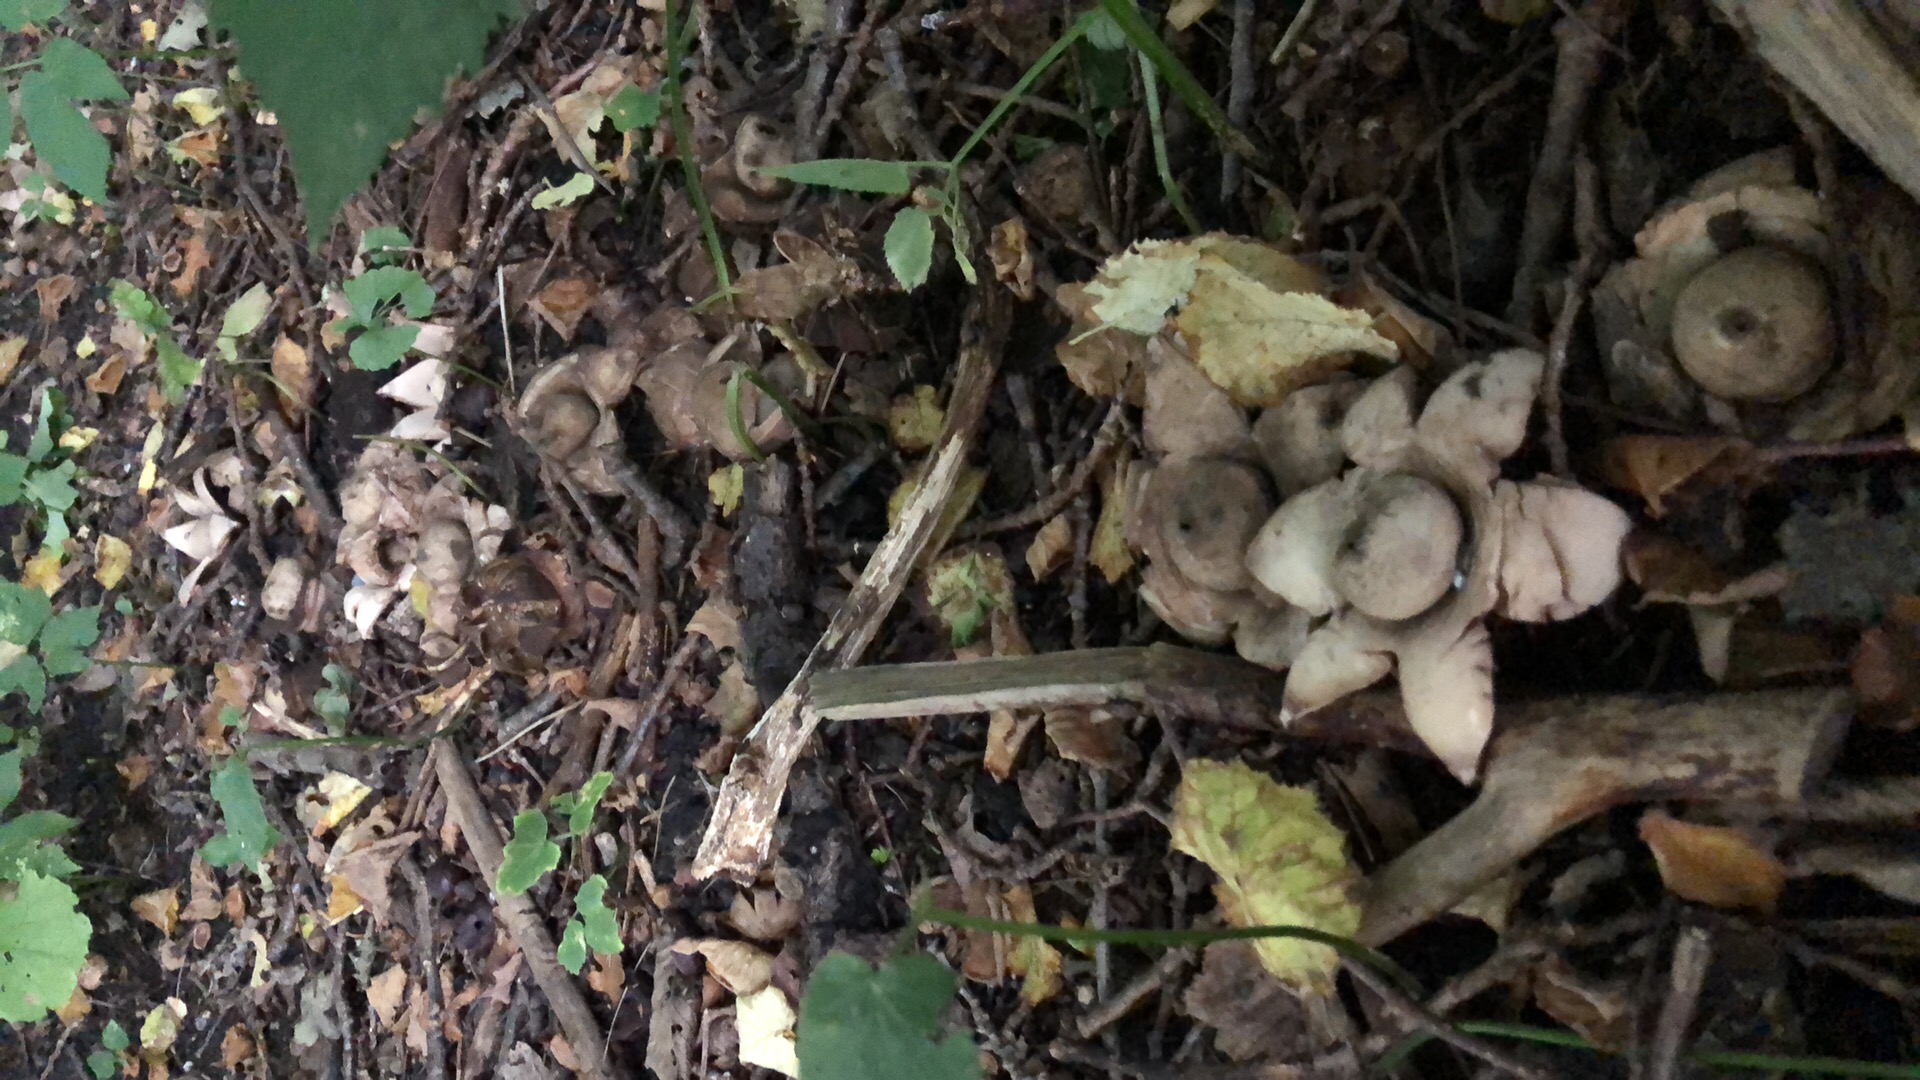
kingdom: Fungi
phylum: Basidiomycota
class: Agaricomycetes
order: Geastrales
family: Geastraceae
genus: Geastrum
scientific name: Geastrum michelianum
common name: kødet stjernebold
